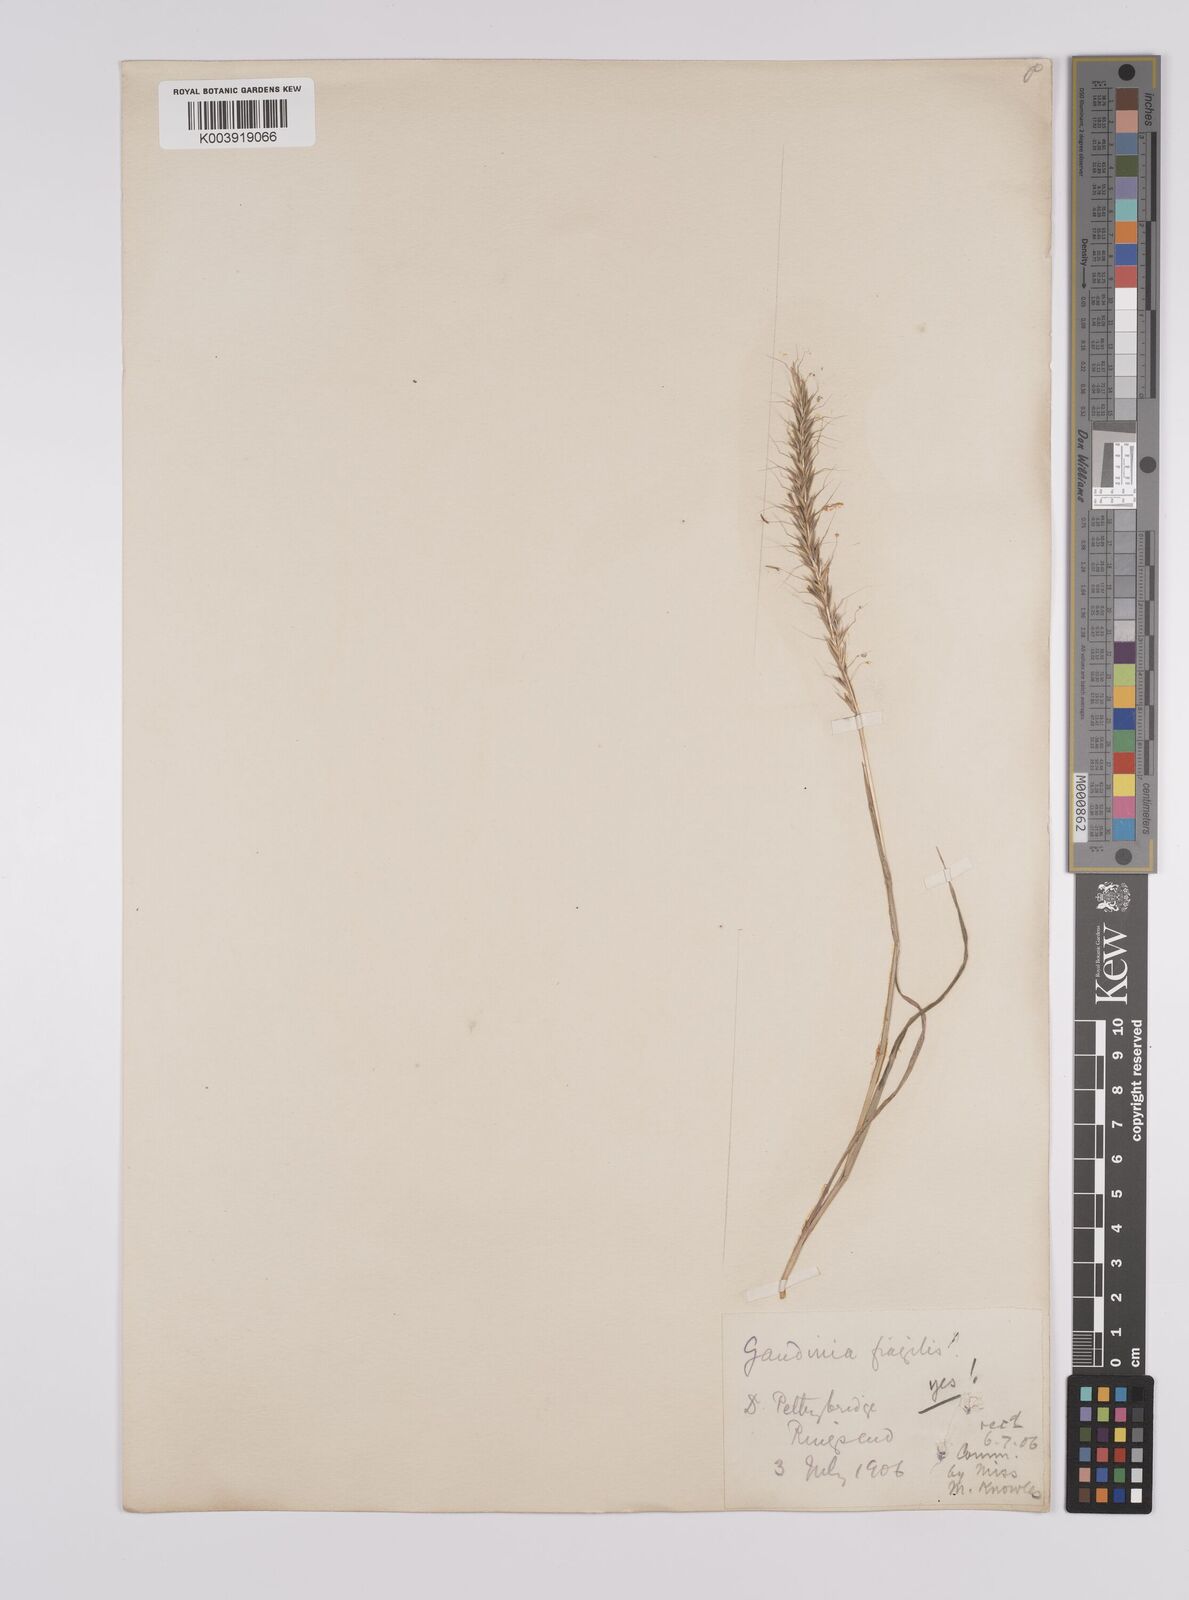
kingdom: Plantae
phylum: Tracheophyta
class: Liliopsida
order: Poales
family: Poaceae
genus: Gaudinia
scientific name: Gaudinia fragilis
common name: French oat-grass
